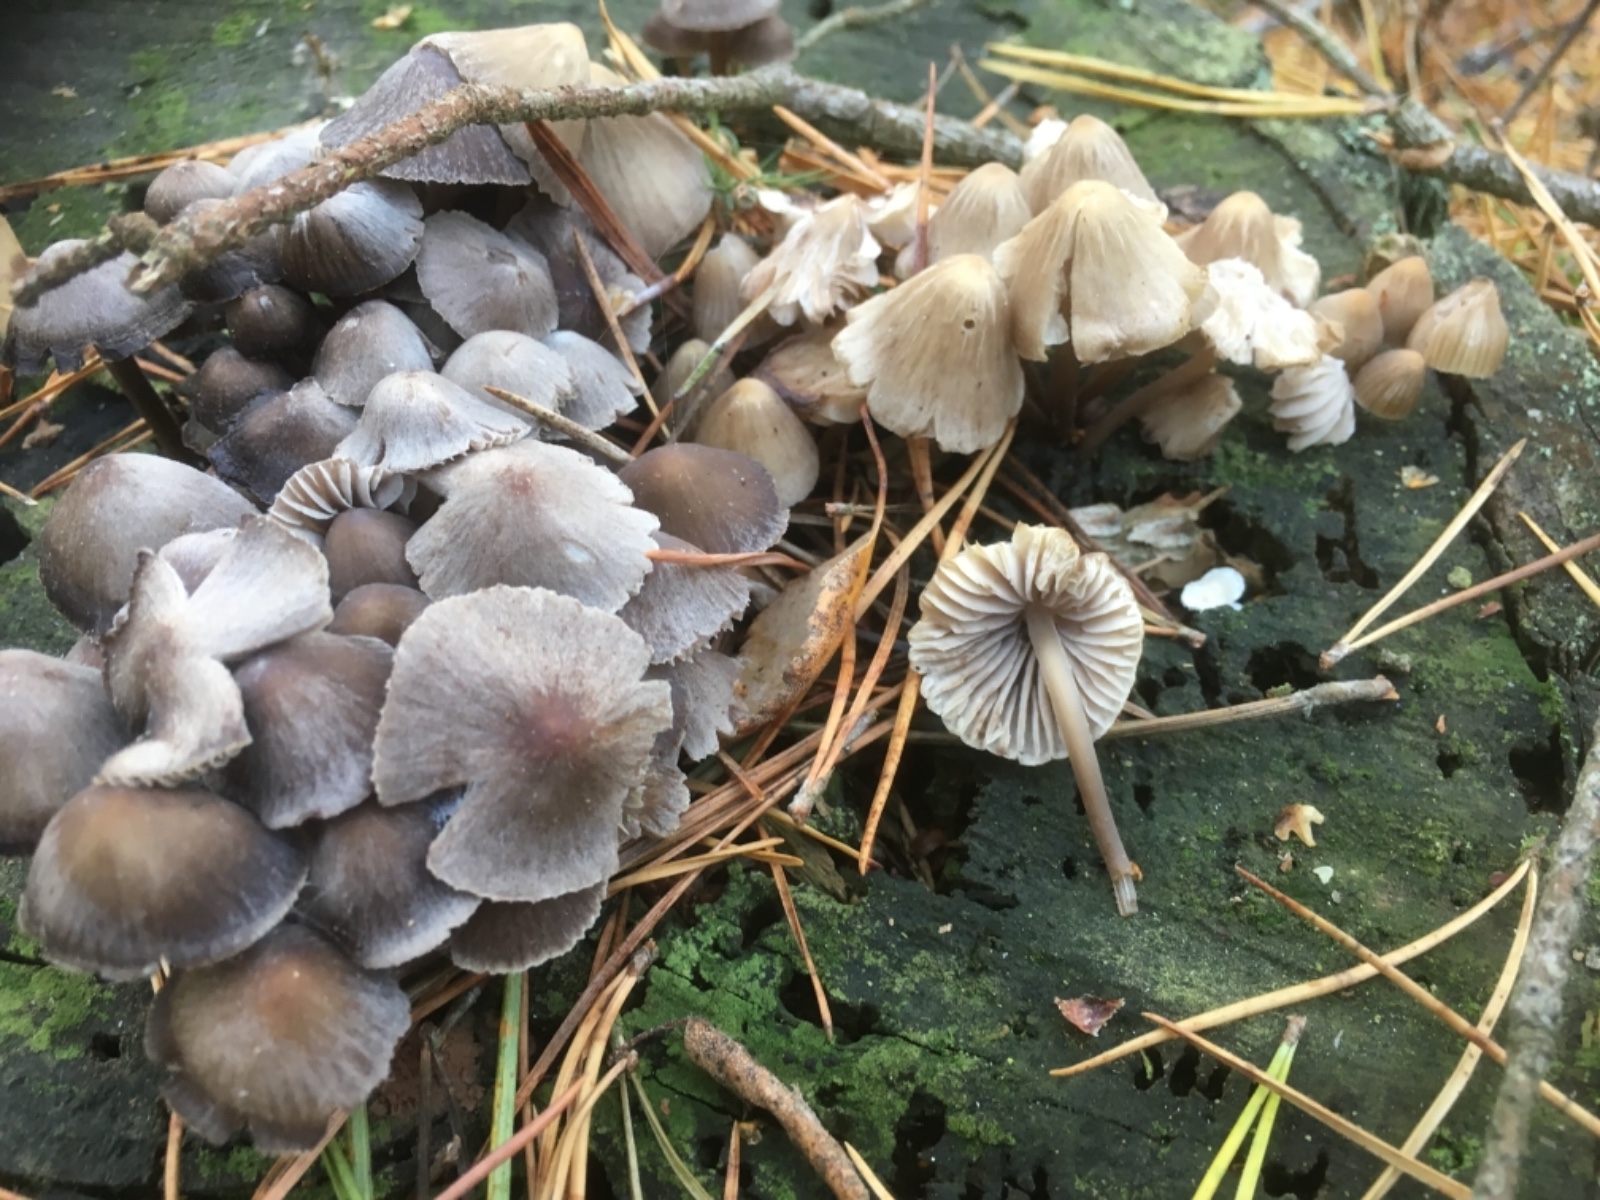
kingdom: Fungi
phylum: Basidiomycota
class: Agaricomycetes
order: Agaricales
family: Mycenaceae
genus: Mycena
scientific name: Mycena
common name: huesvamp
